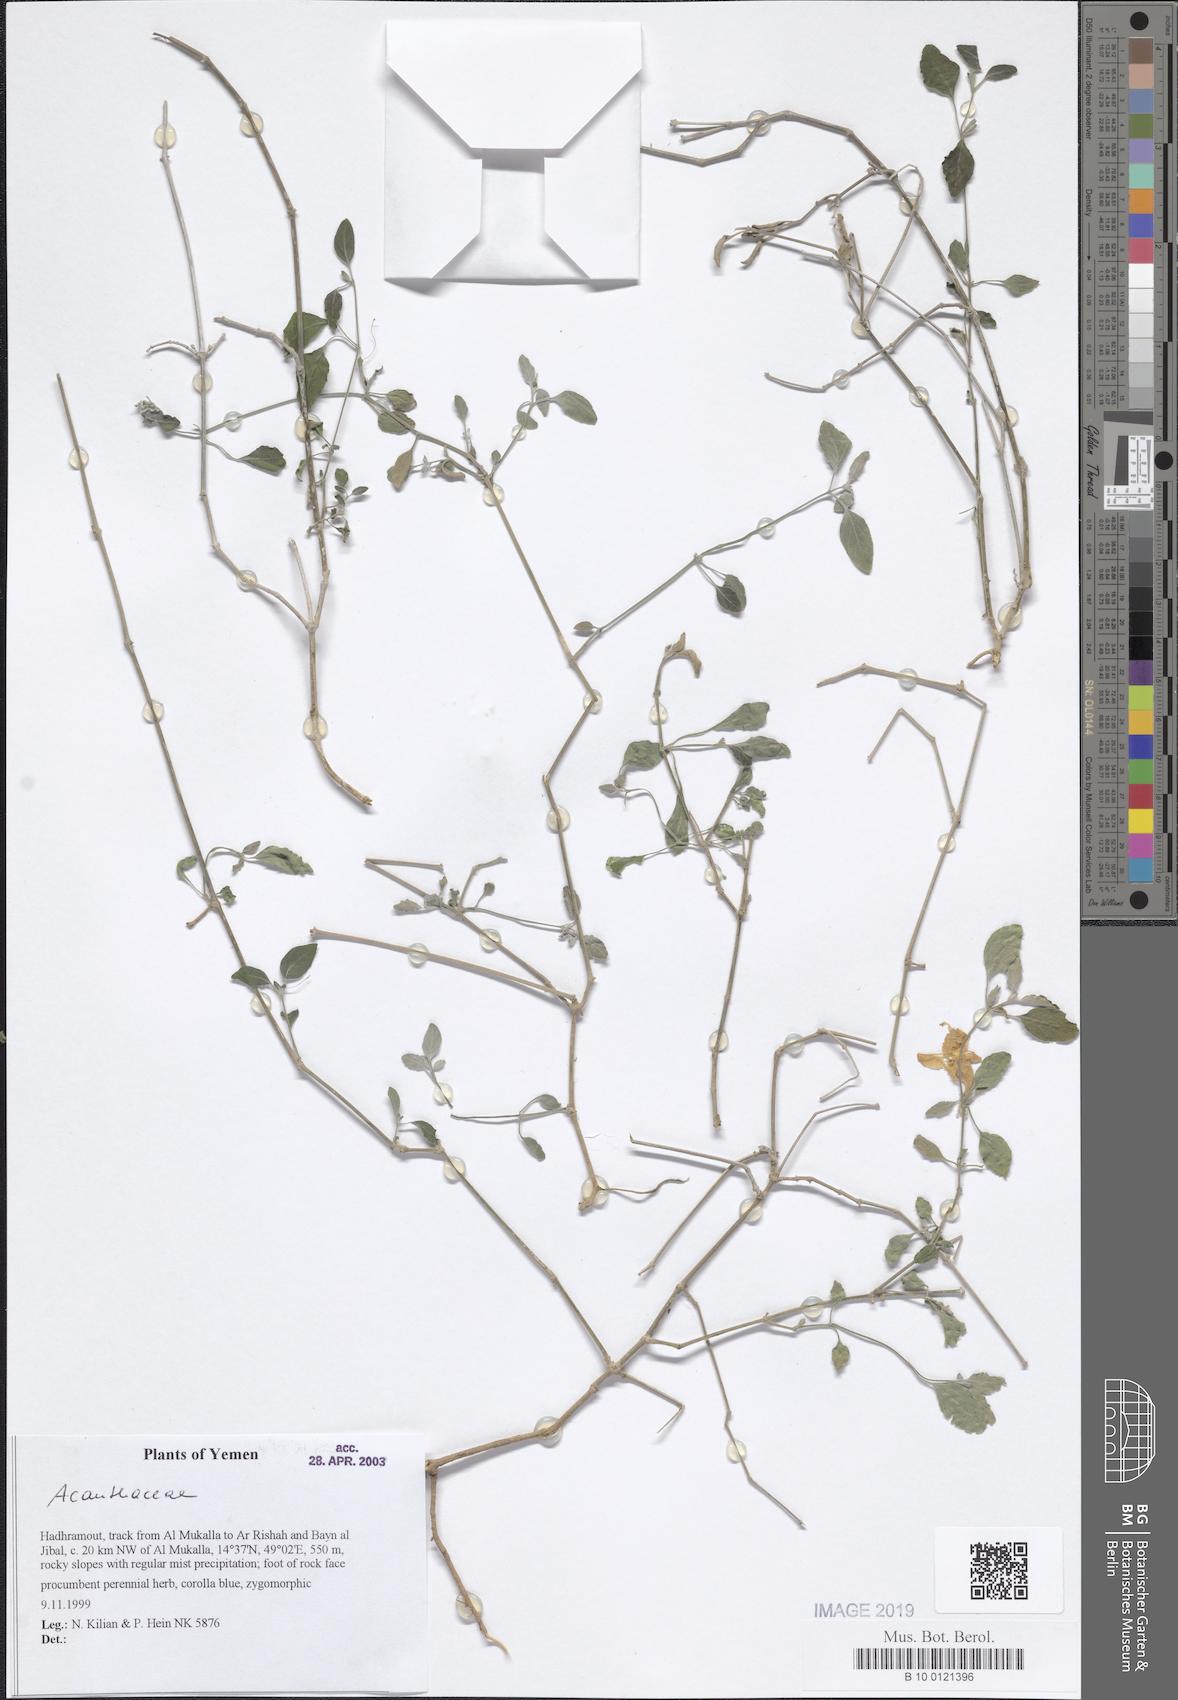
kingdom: Plantae
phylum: Tracheophyta
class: Magnoliopsida
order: Lamiales
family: Acanthaceae
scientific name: Acanthaceae
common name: Acanthaceae
